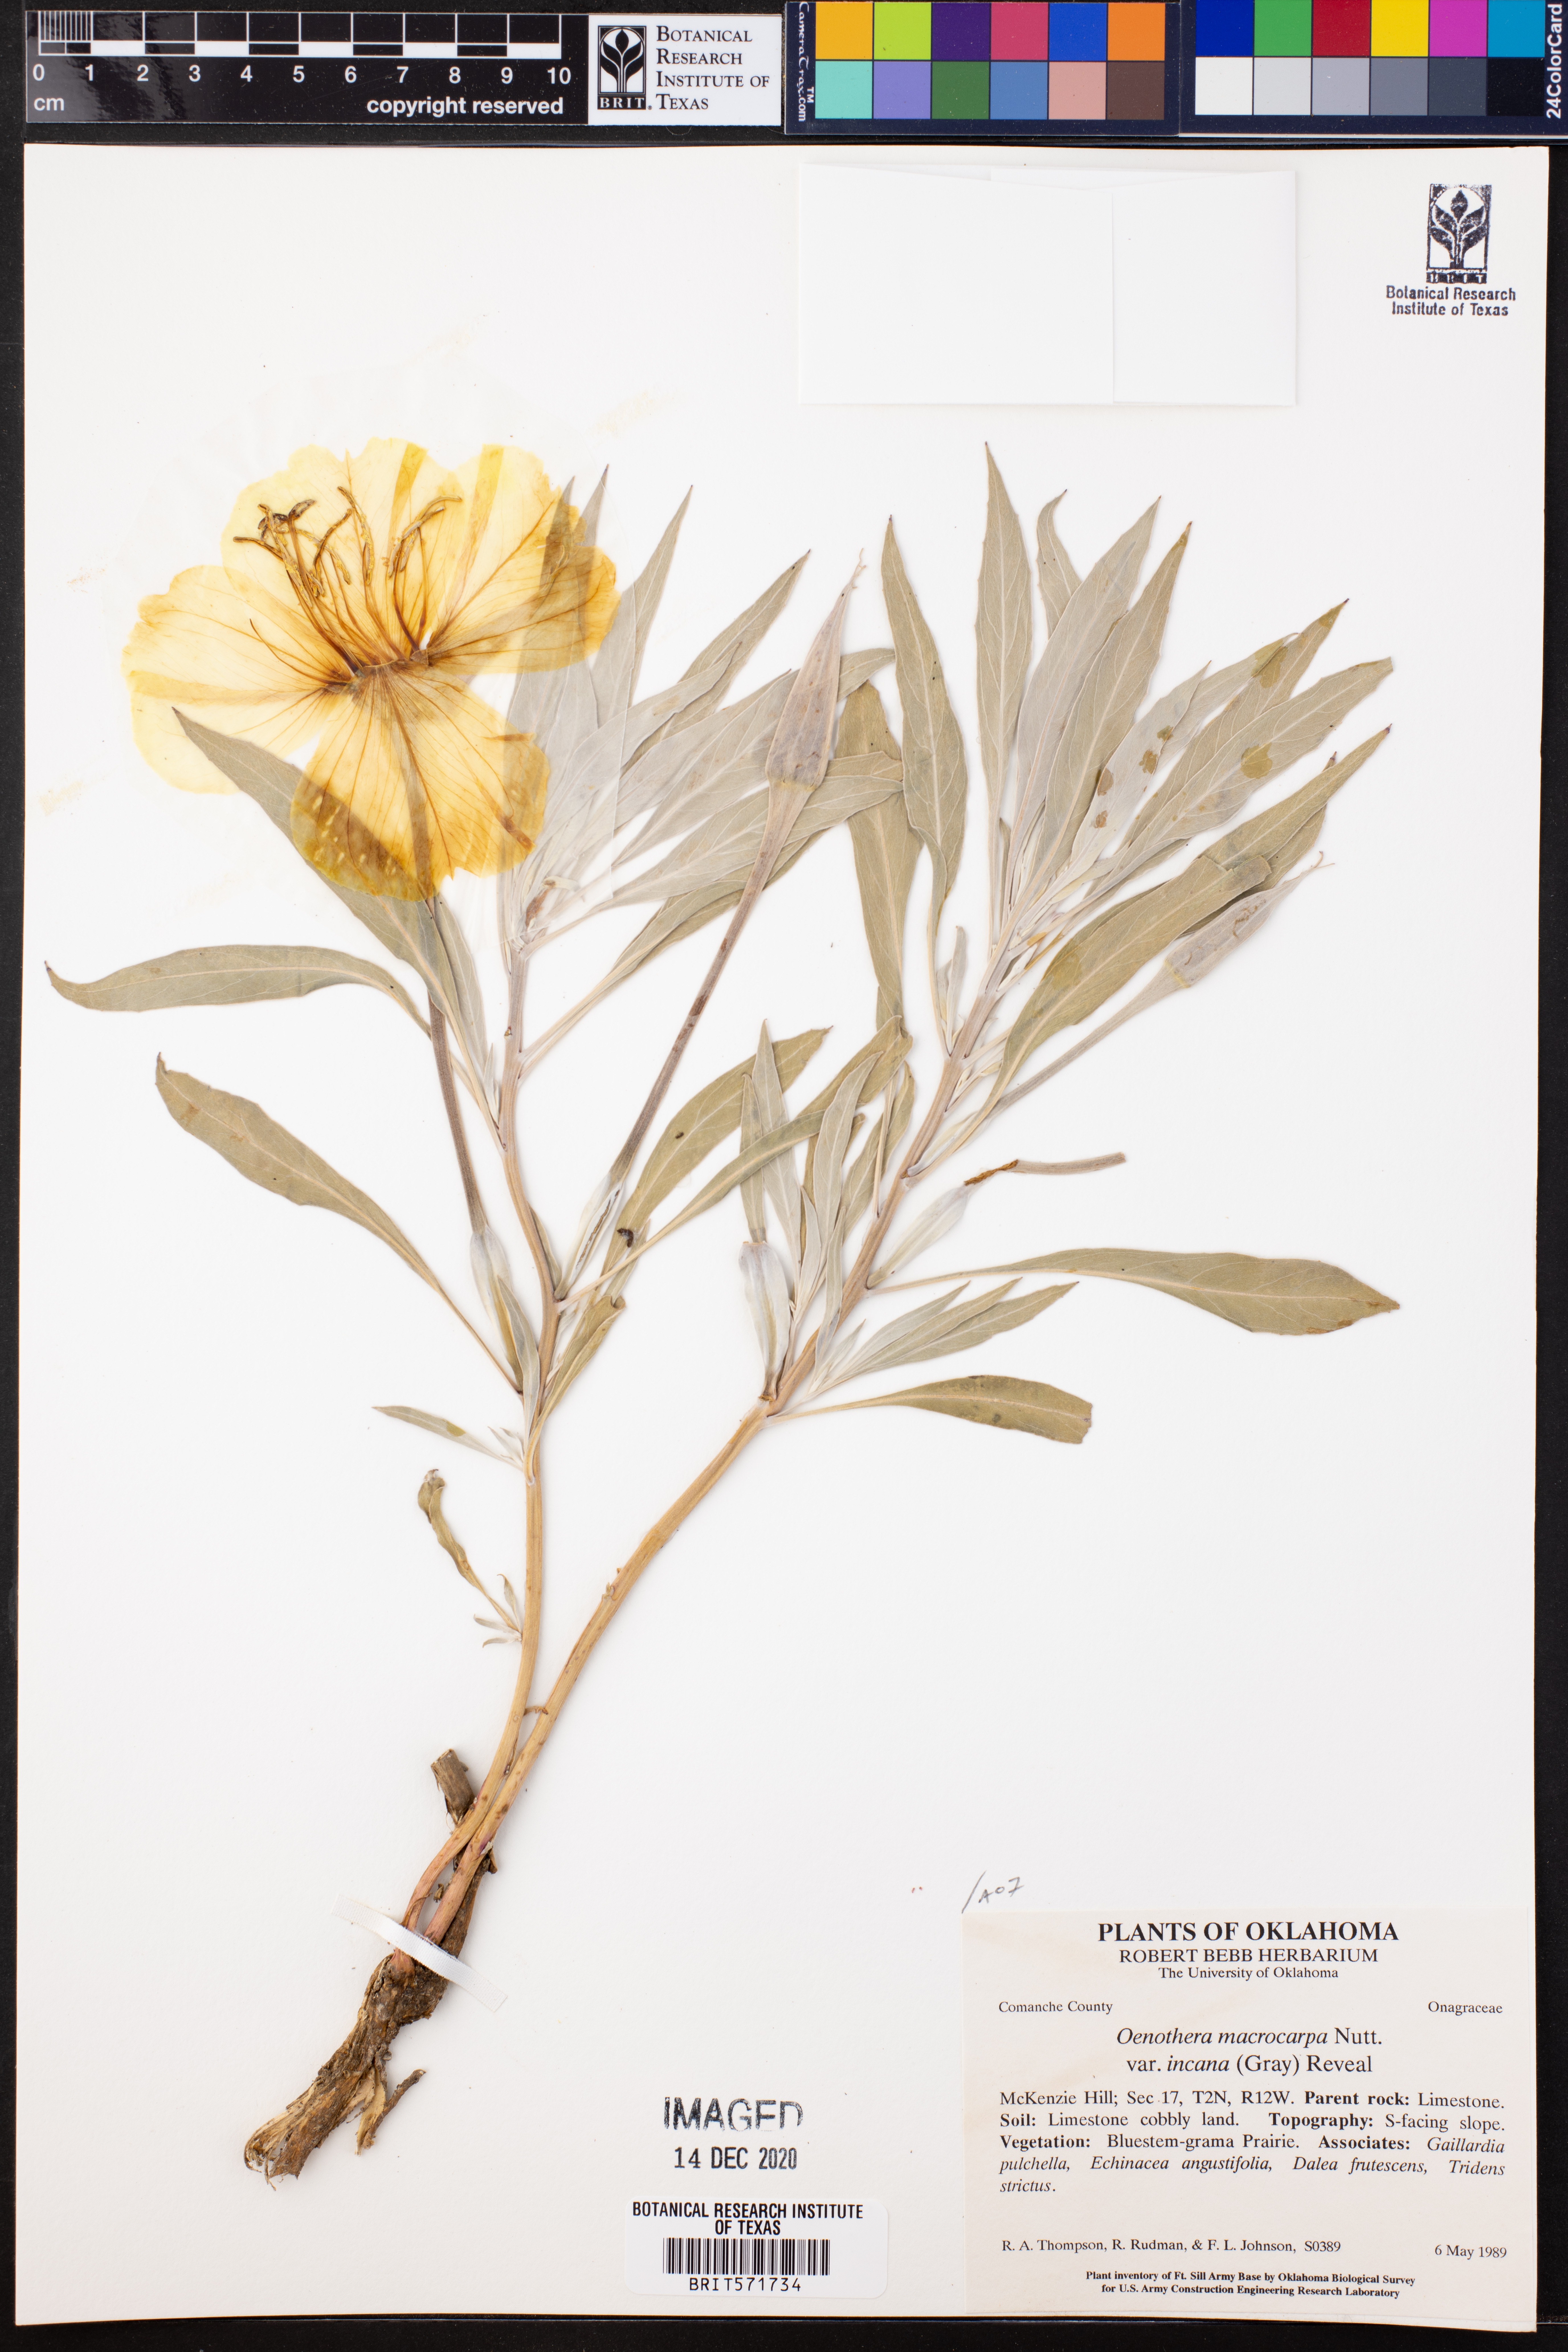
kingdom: Plantae
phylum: Tracheophyta
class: Magnoliopsida
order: Myrtales
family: Onagraceae
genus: Oenothera
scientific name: Oenothera macrocarpa
